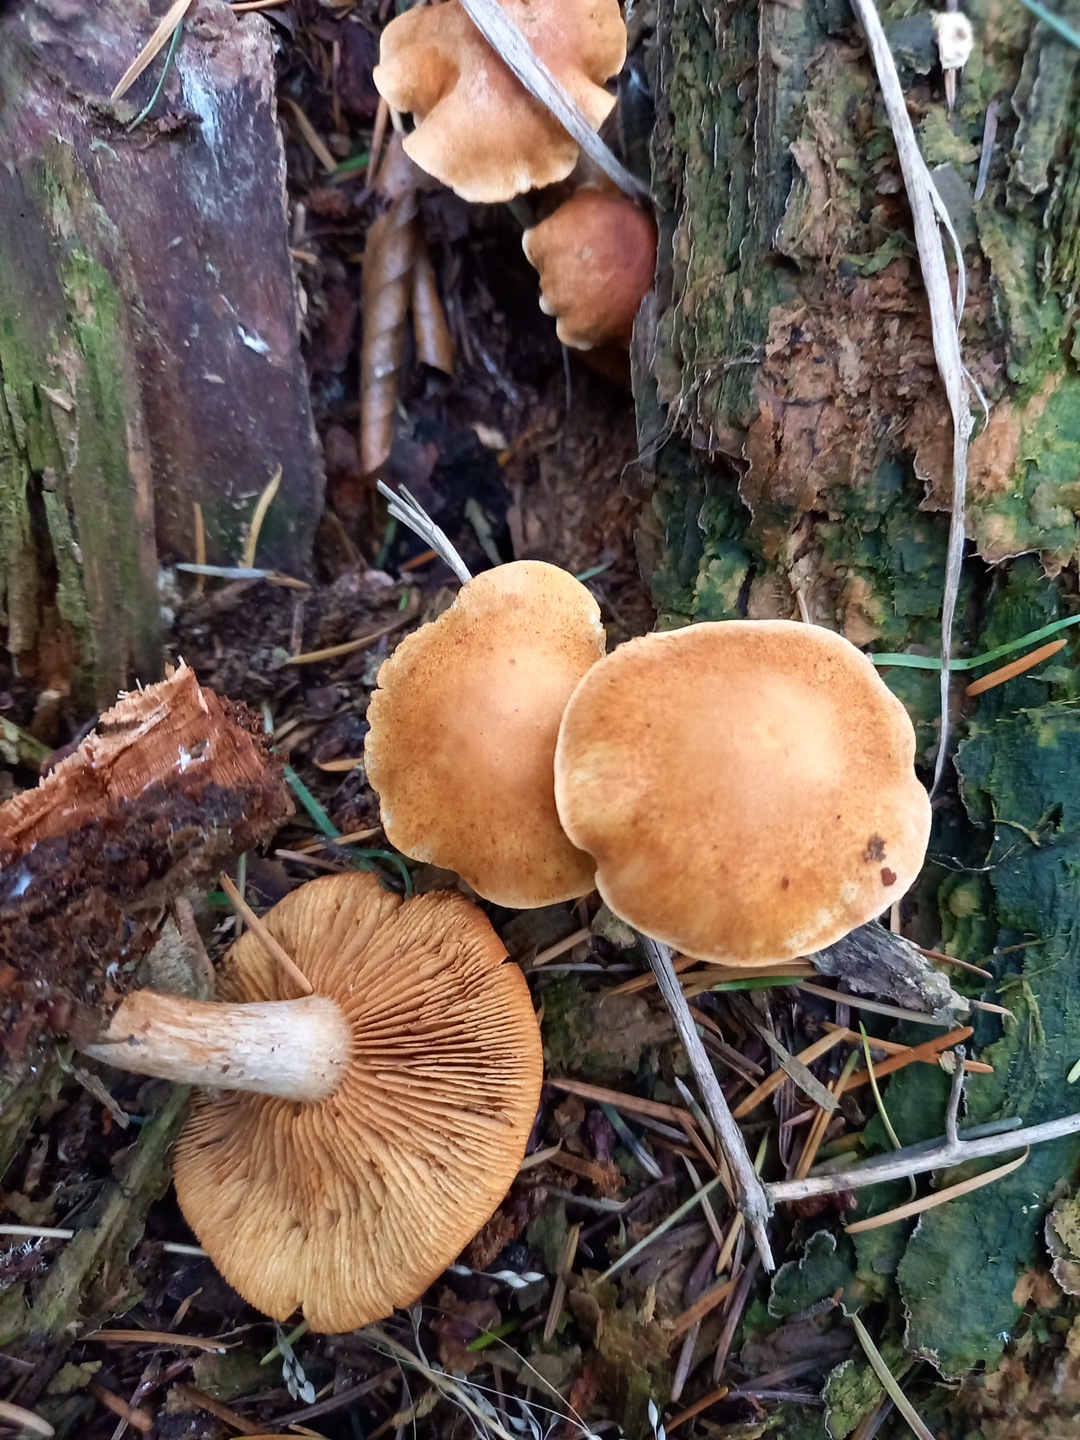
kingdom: Fungi
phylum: Basidiomycota
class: Agaricomycetes
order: Agaricales
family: Hymenogastraceae
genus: Gymnopilus
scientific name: Gymnopilus penetrans
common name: plettet flammehat
